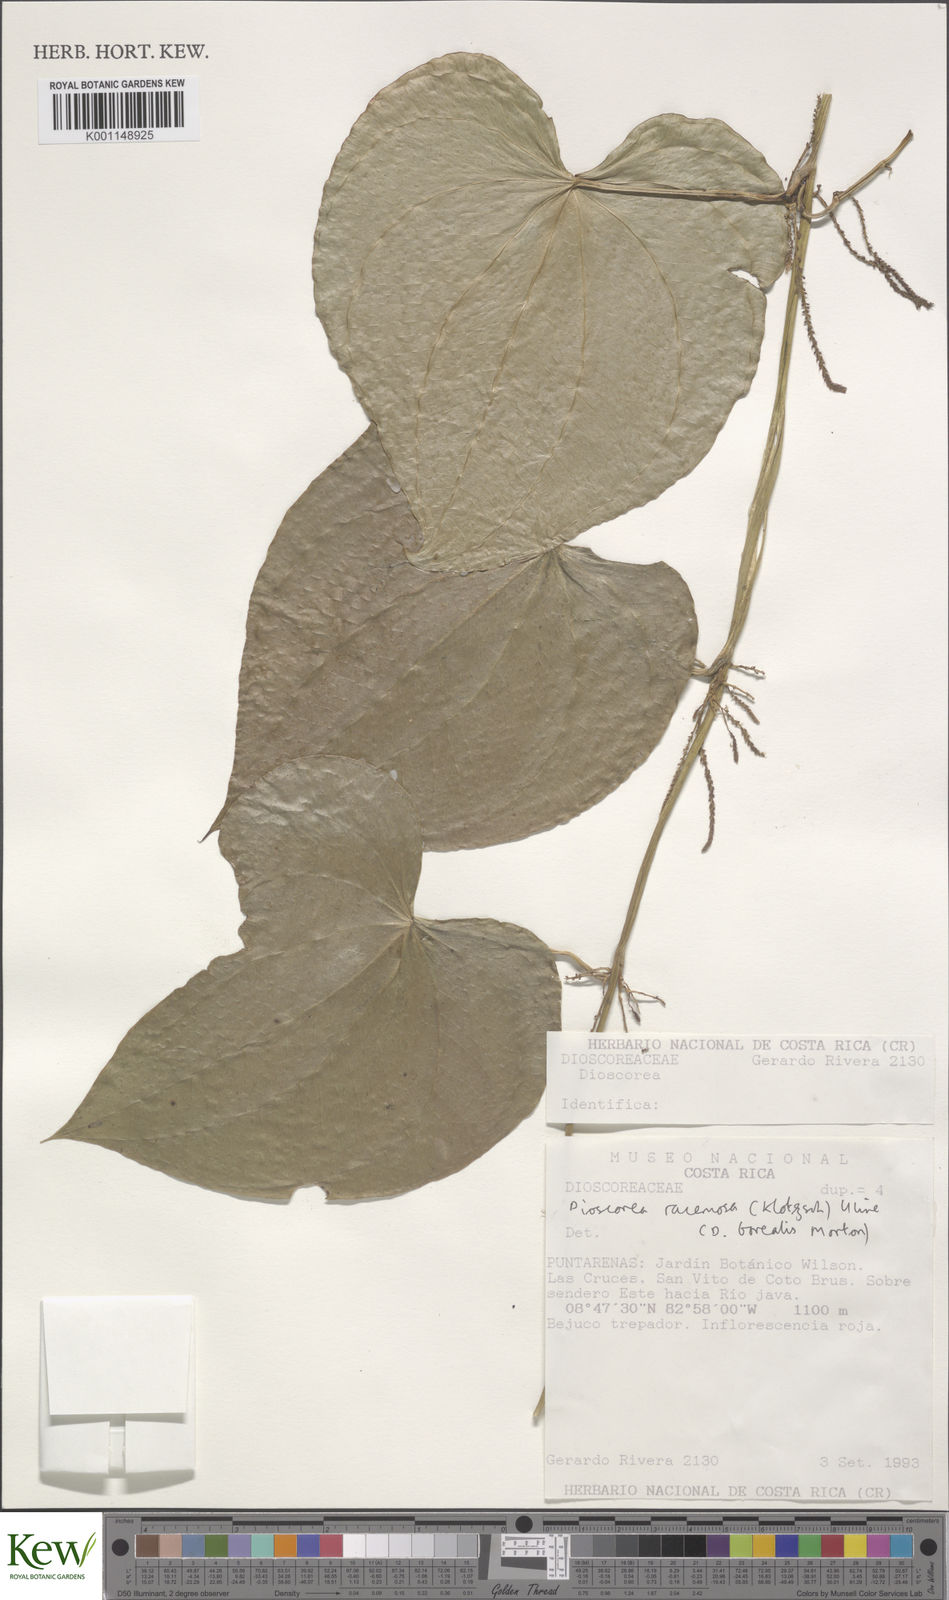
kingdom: Plantae
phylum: Tracheophyta
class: Liliopsida
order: Dioscoreales
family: Dioscoreaceae
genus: Dioscorea
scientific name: Dioscorea
